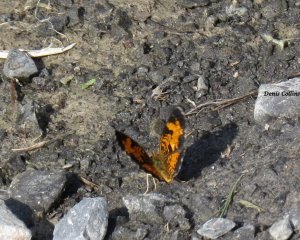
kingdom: Animalia
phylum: Arthropoda
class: Insecta
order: Lepidoptera
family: Nymphalidae
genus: Phyciodes
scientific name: Phyciodes tharos
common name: Northern Crescent
